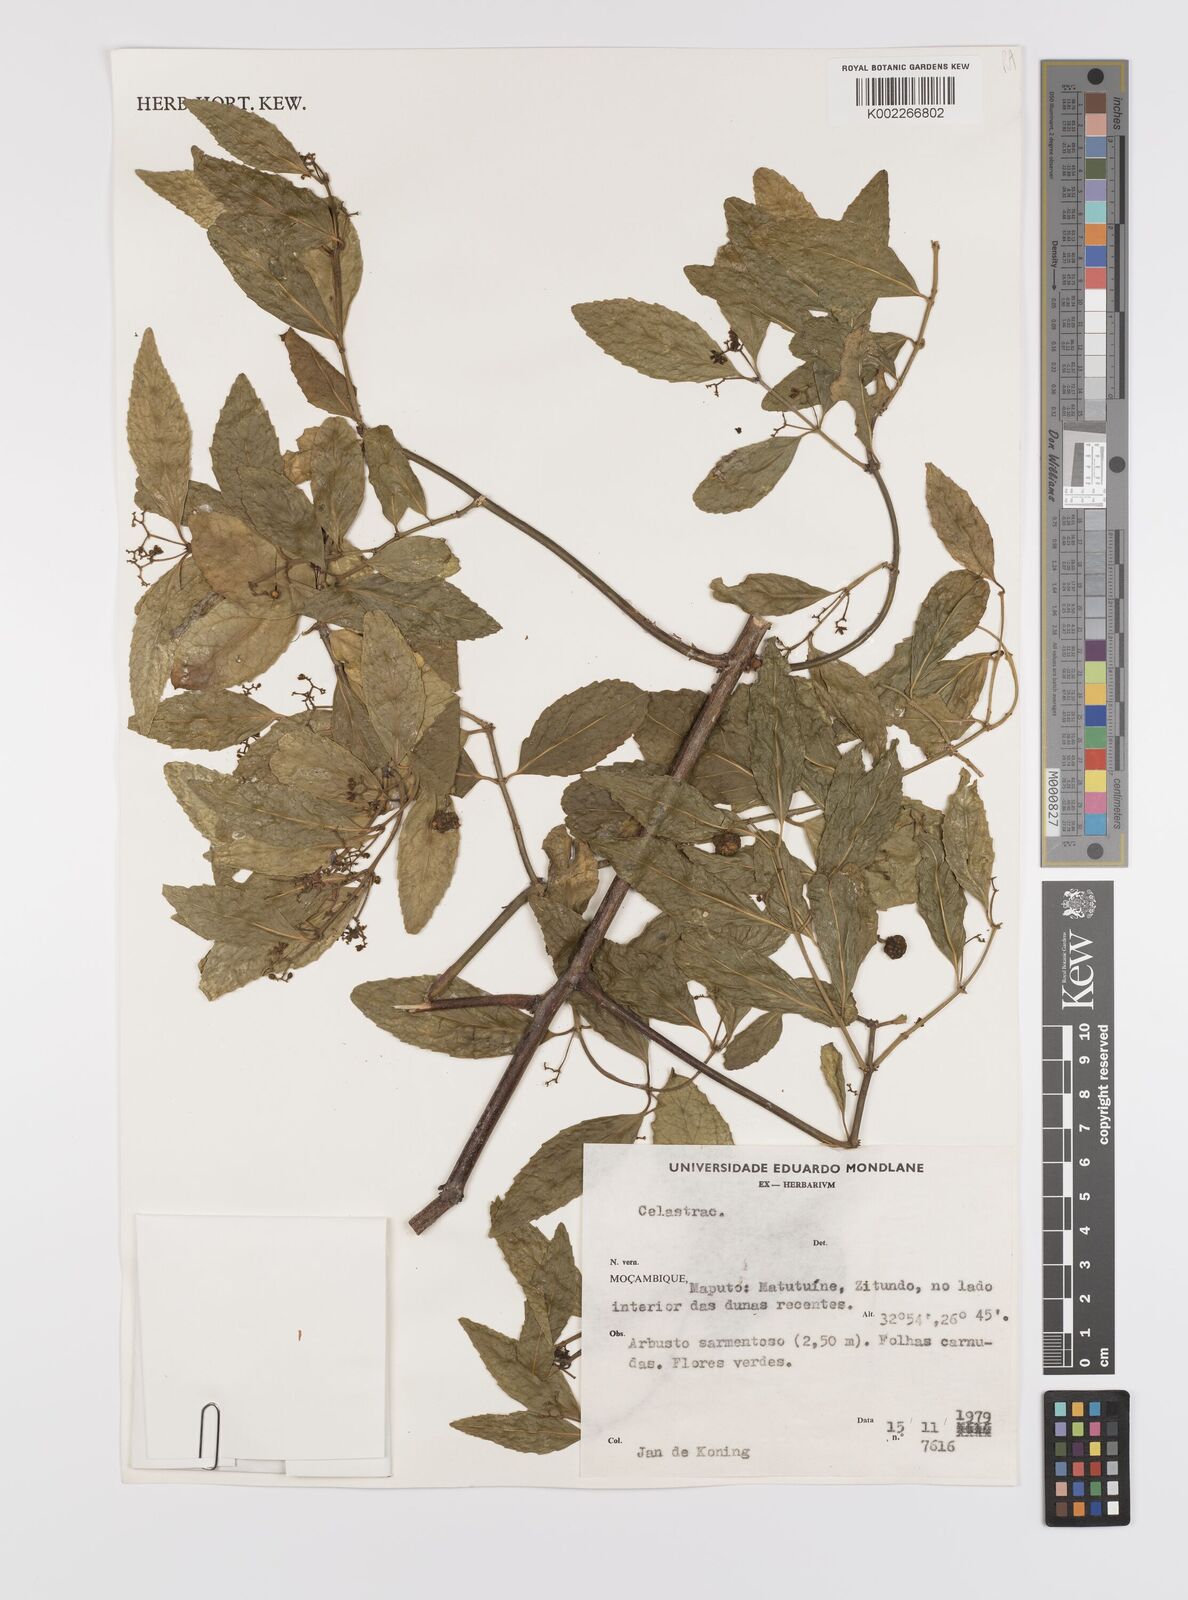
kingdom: Plantae
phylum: Tracheophyta
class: Magnoliopsida
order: Celastrales
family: Celastraceae
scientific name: Celastraceae
